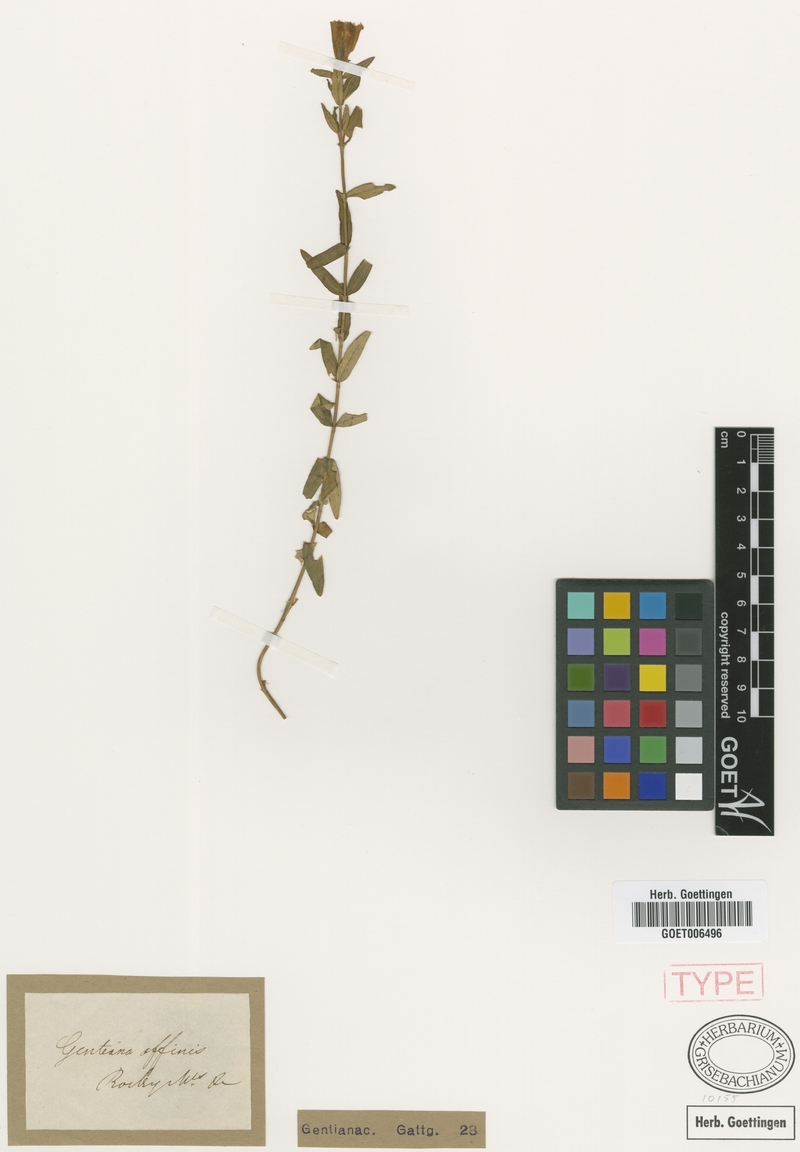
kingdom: Plantae
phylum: Tracheophyta
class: Magnoliopsida
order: Gentianales
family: Gentianaceae
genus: Gentiana
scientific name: Gentiana affinis
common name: Rocky mountain gentian
